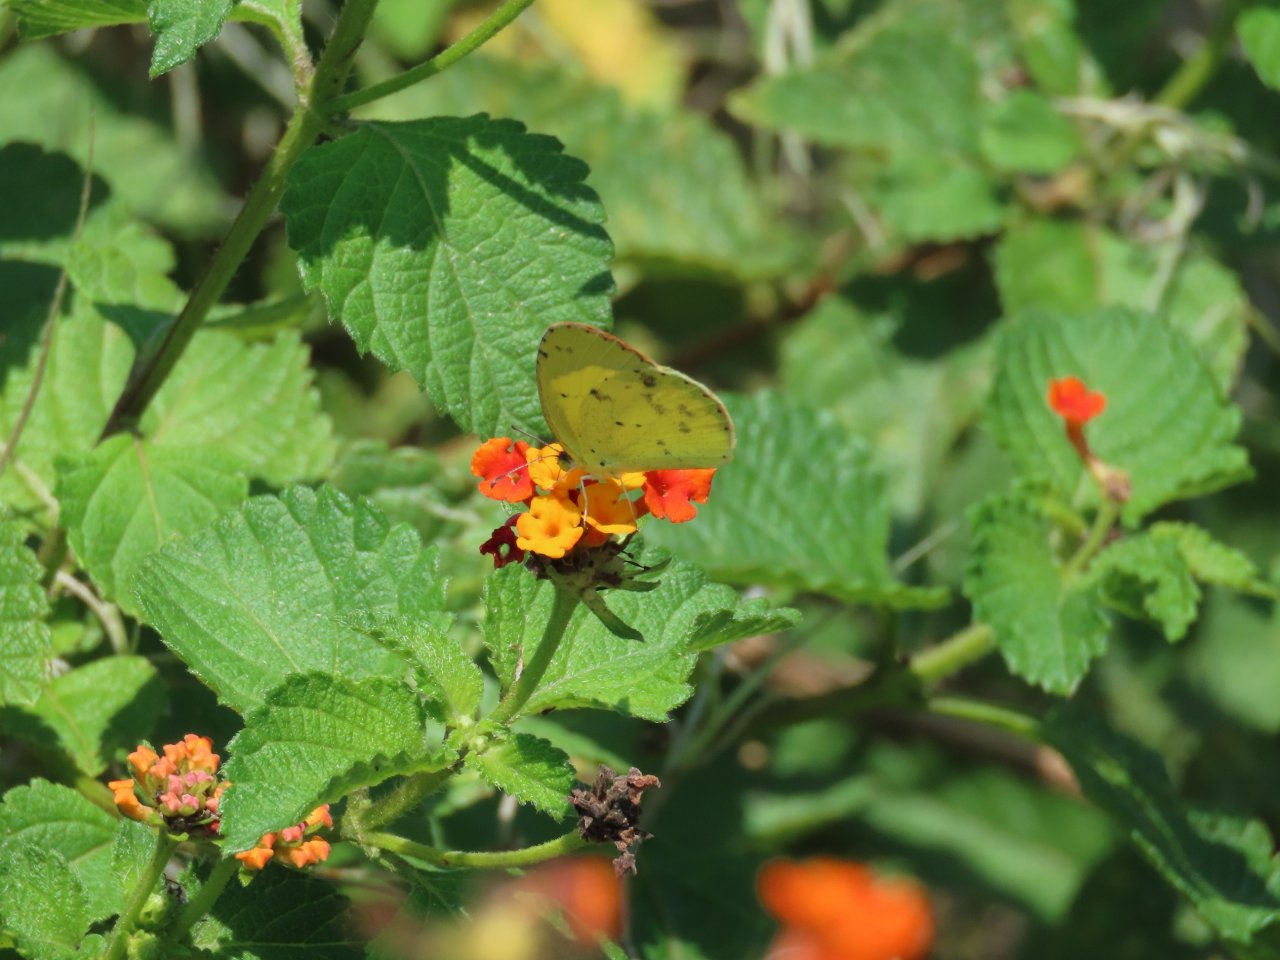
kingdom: Animalia
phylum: Arthropoda
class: Insecta
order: Lepidoptera
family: Pieridae
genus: Pyrisitia
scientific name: Pyrisitia lisa
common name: Little Yellow
